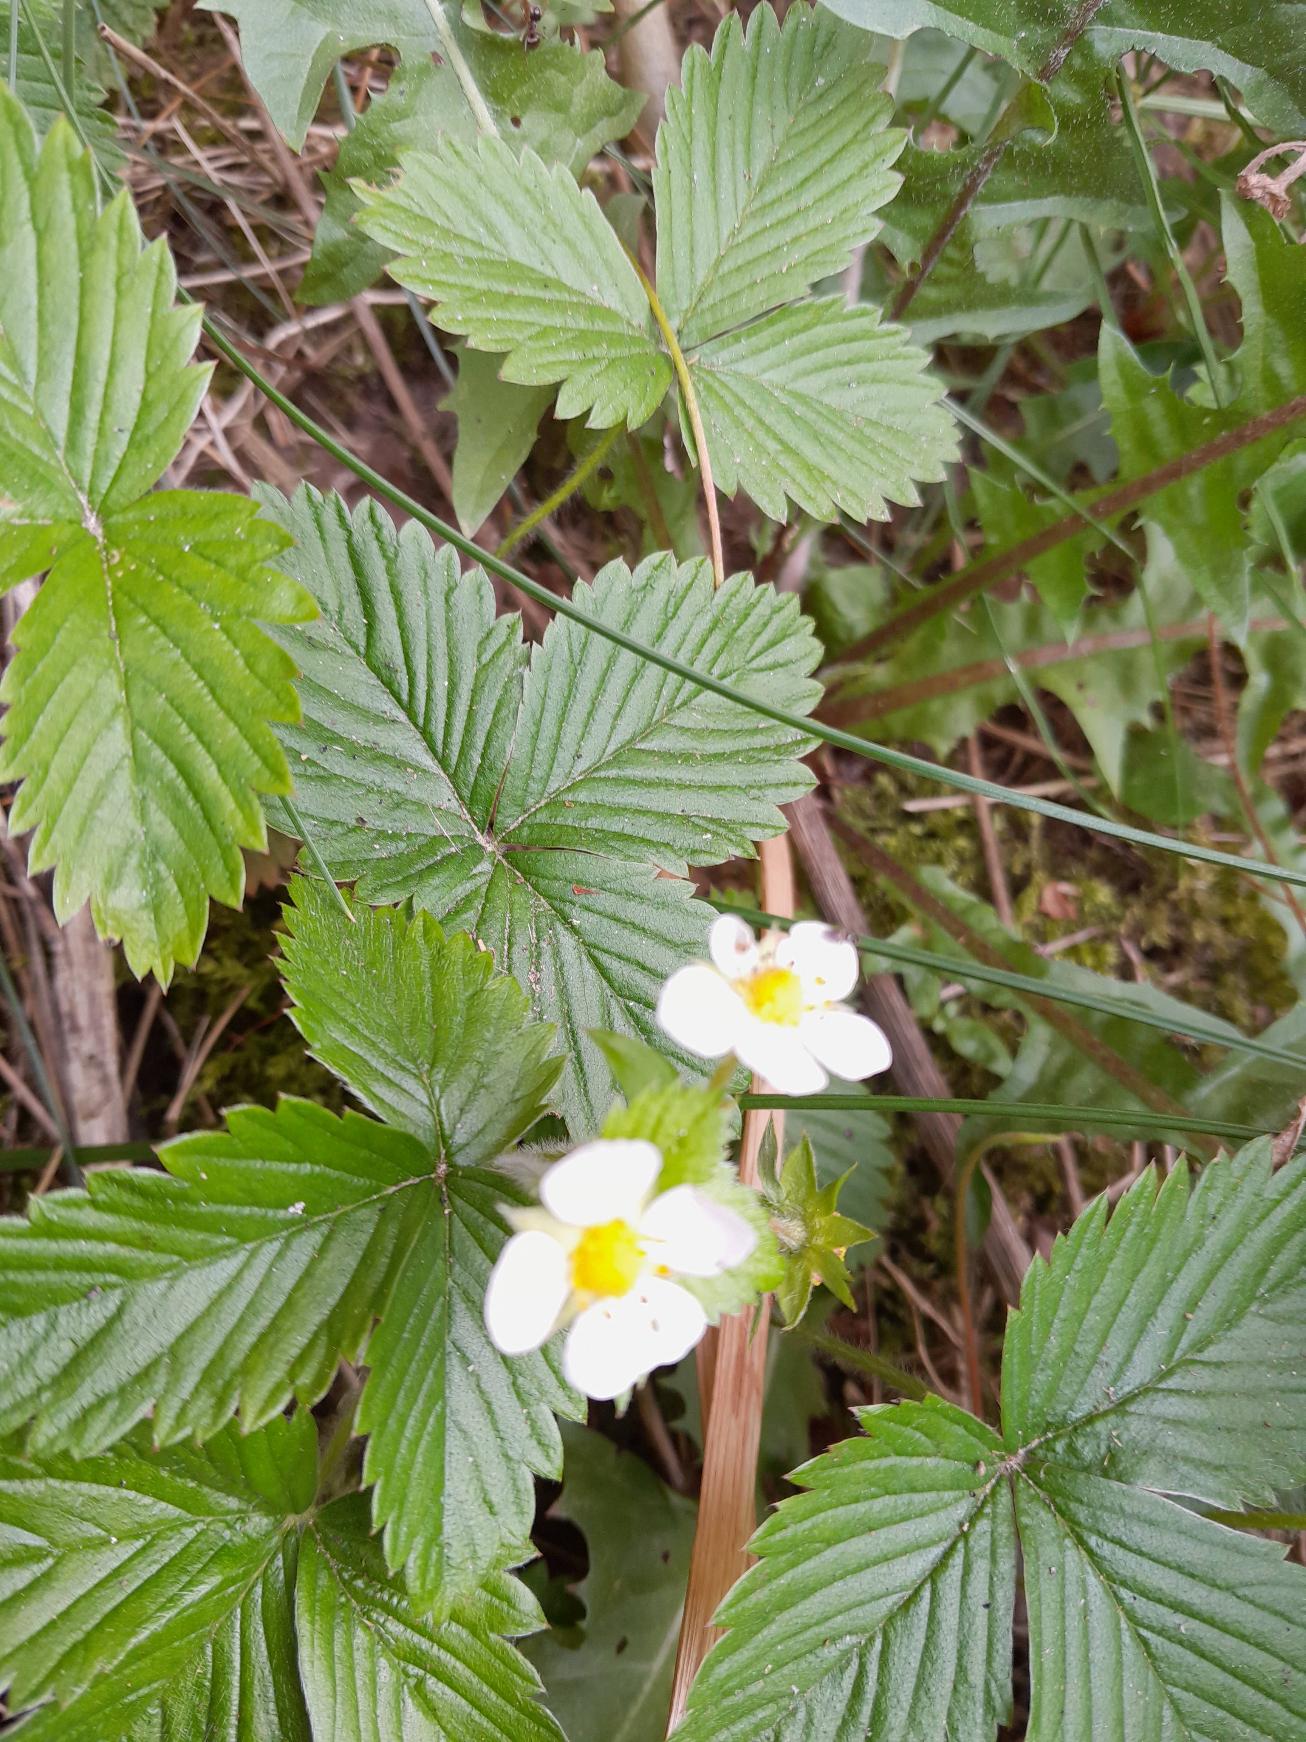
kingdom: Plantae
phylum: Tracheophyta
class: Magnoliopsida
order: Rosales
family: Rosaceae
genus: Fragaria
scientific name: Fragaria vesca
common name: Skov-jordbær
